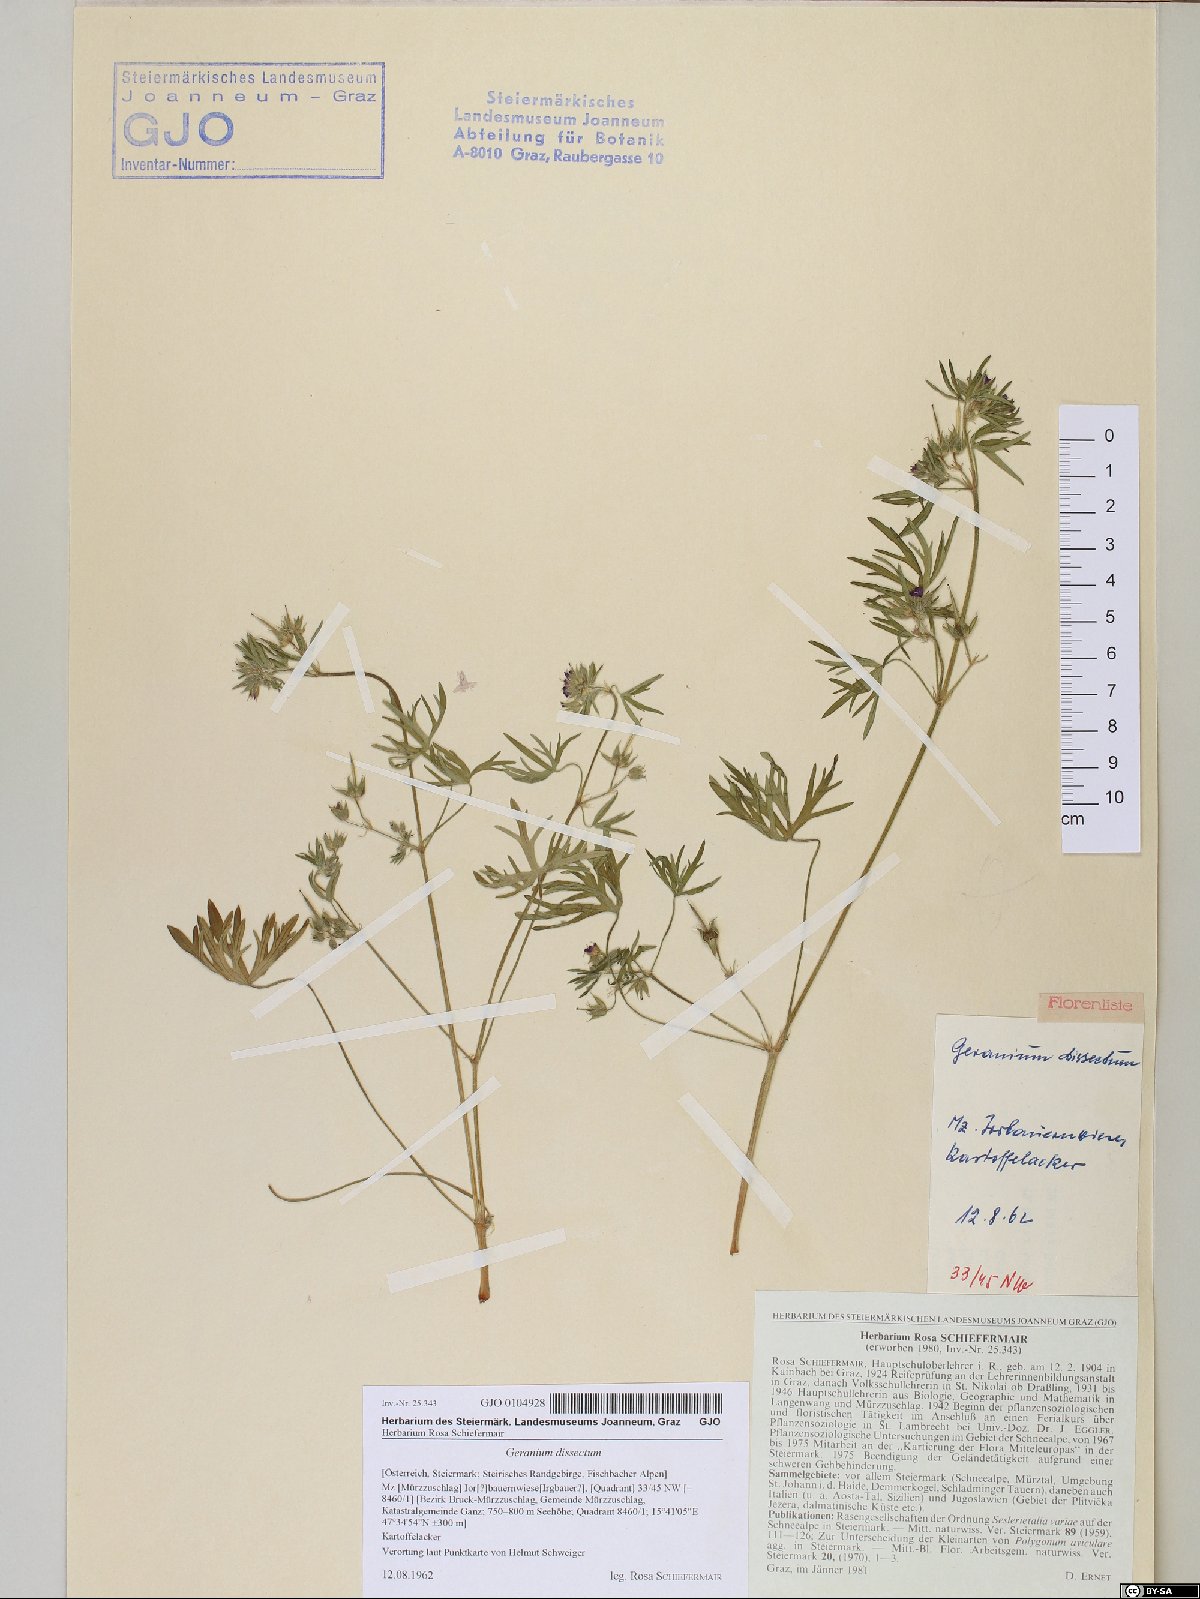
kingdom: Plantae
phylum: Tracheophyta
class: Magnoliopsida
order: Geraniales
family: Geraniaceae
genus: Geranium
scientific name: Geranium dissectum
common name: Cut-leaved crane's-bill
